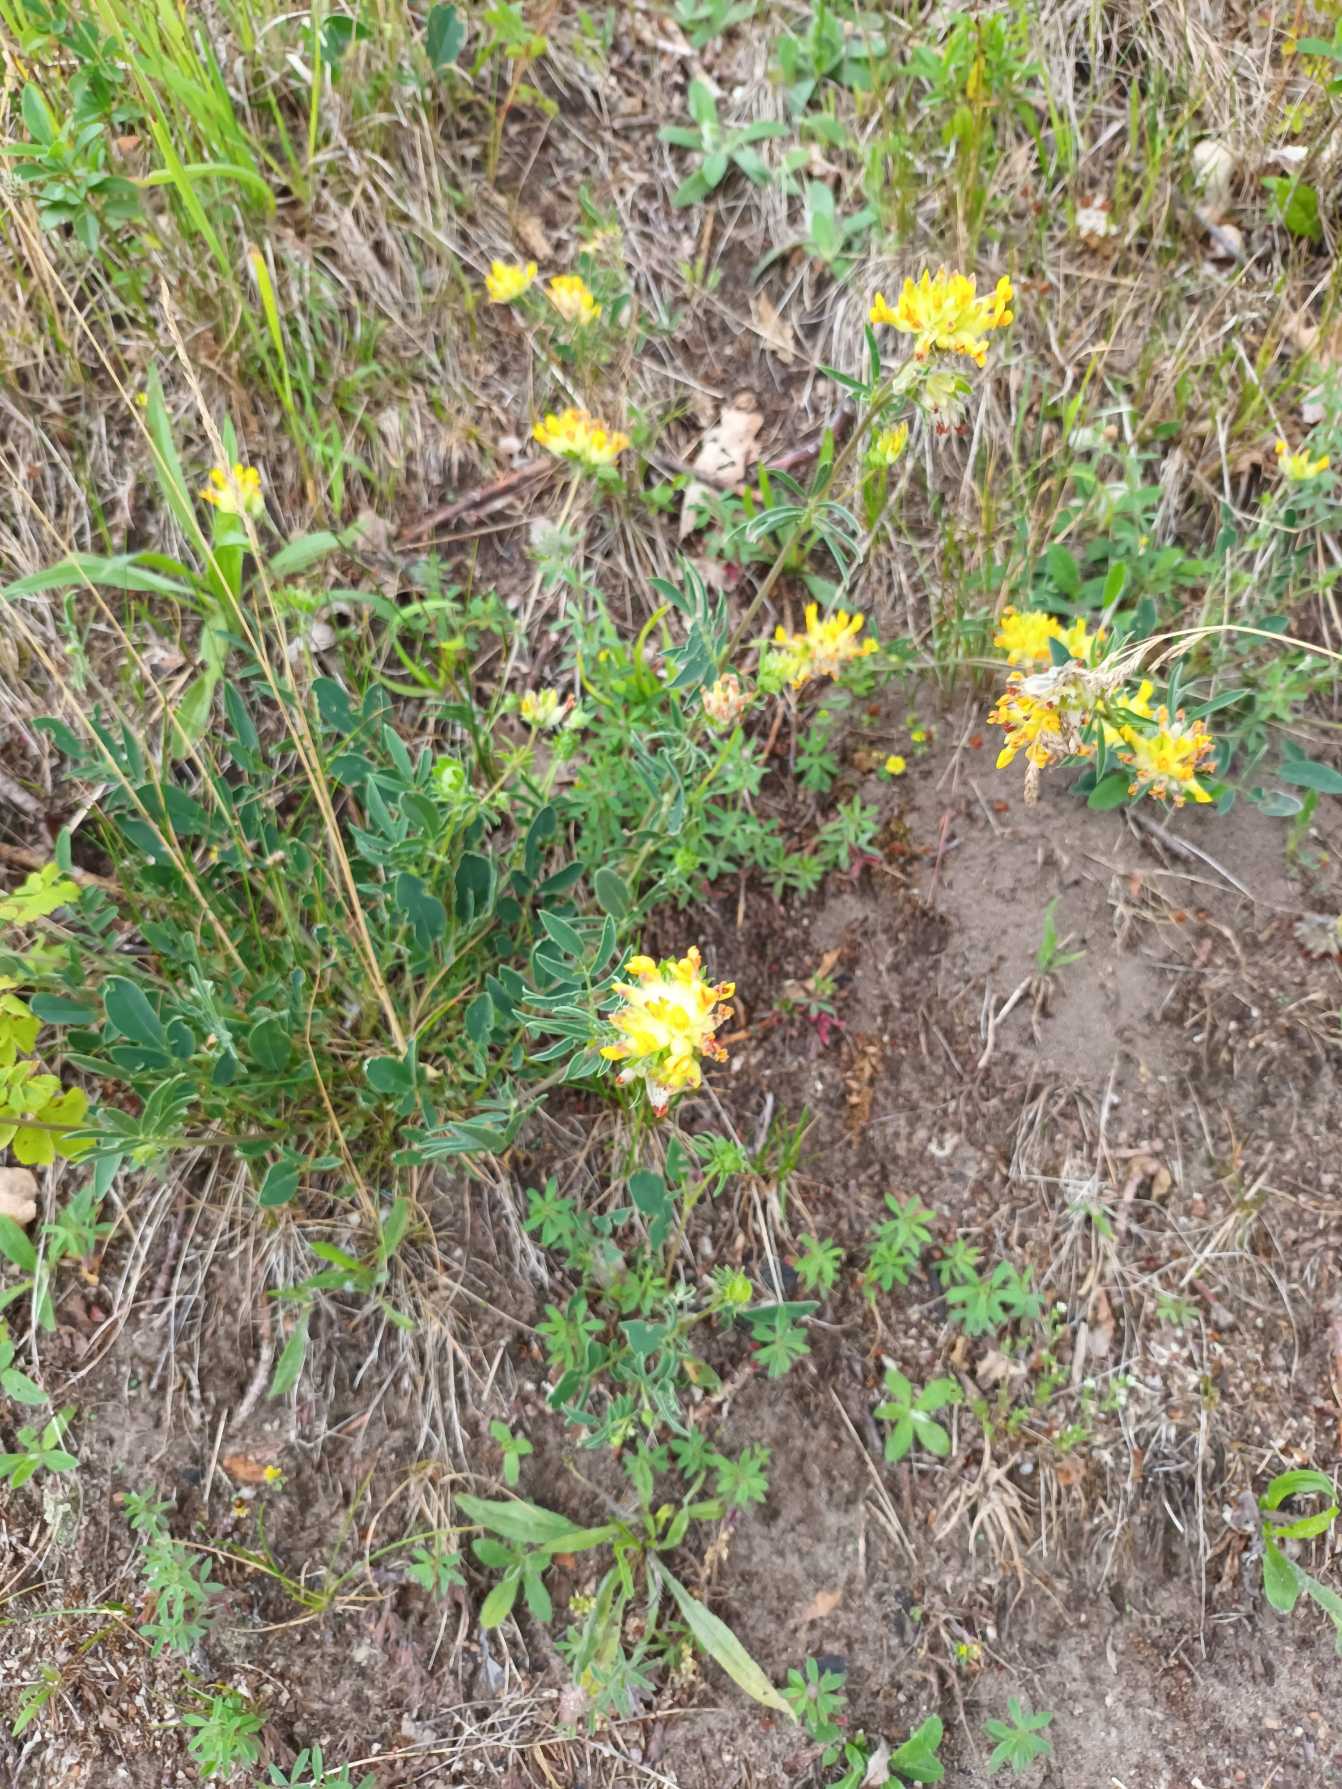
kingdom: Plantae
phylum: Tracheophyta
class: Magnoliopsida
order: Fabales
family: Fabaceae
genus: Anthyllis
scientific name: Anthyllis vulneraria
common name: Rundbælg
